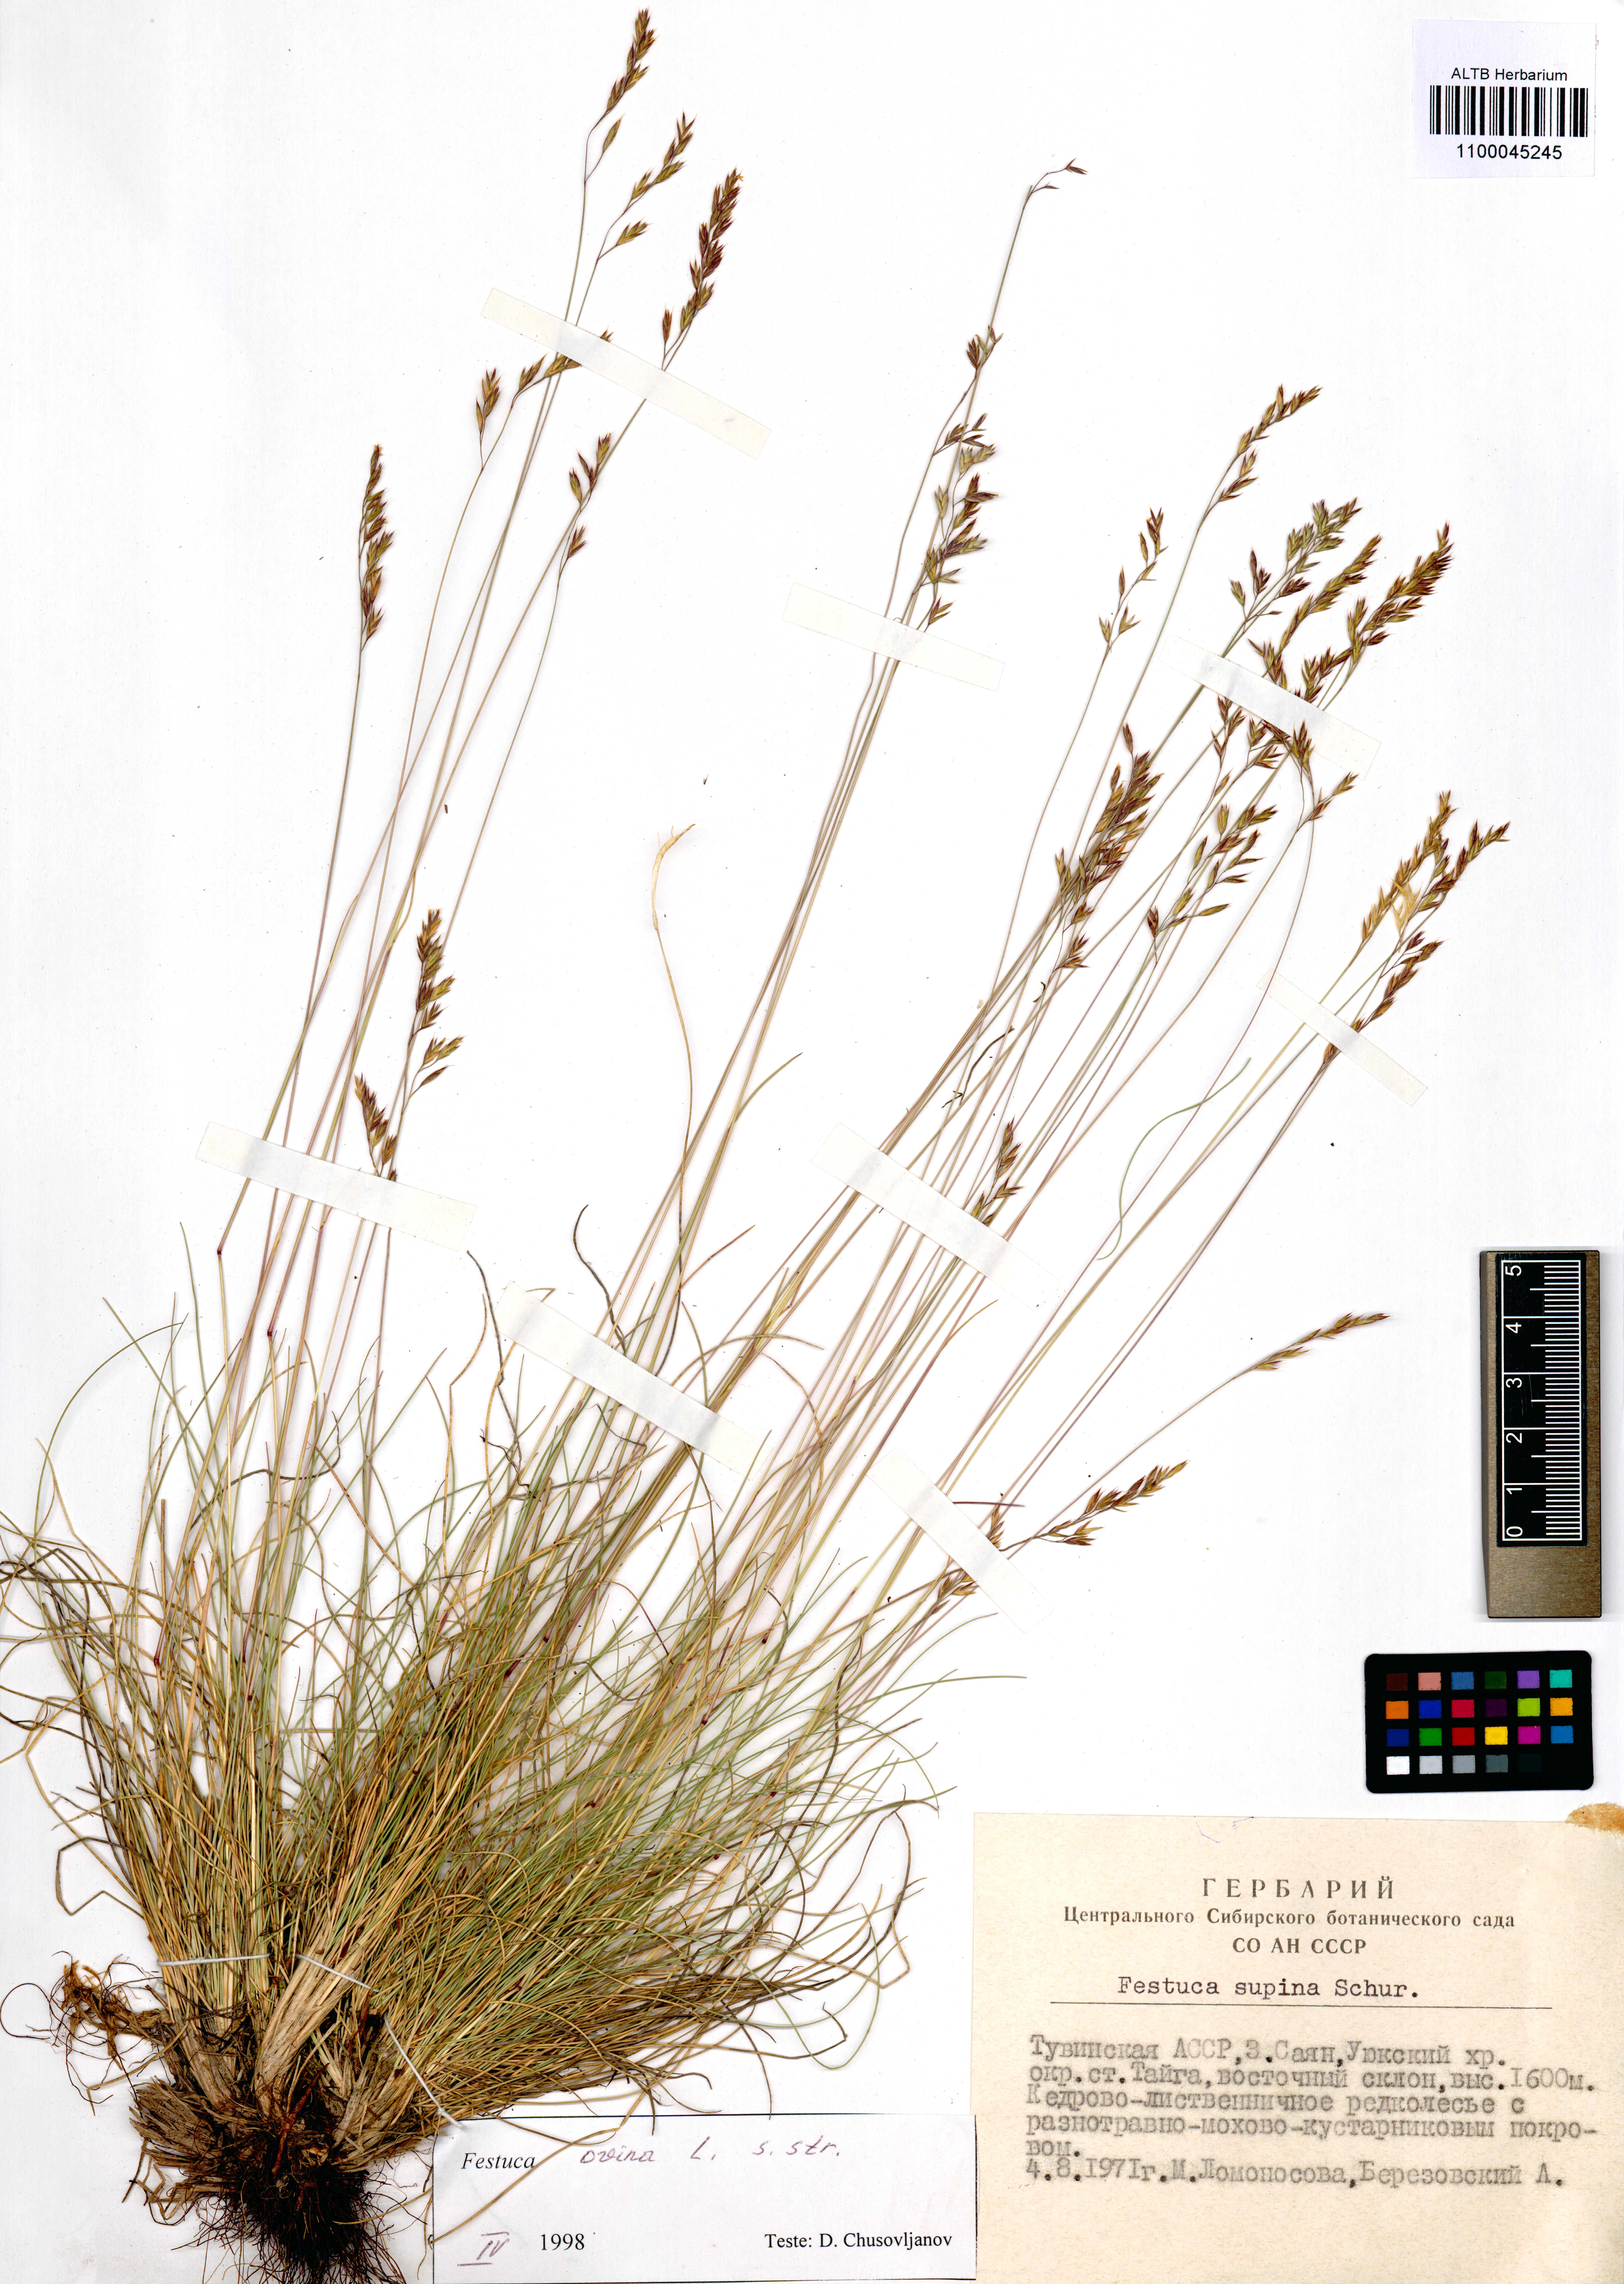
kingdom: Plantae
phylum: Tracheophyta
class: Liliopsida
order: Poales
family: Poaceae
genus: Festuca
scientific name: Festuca ovina
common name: Sheep fescue
